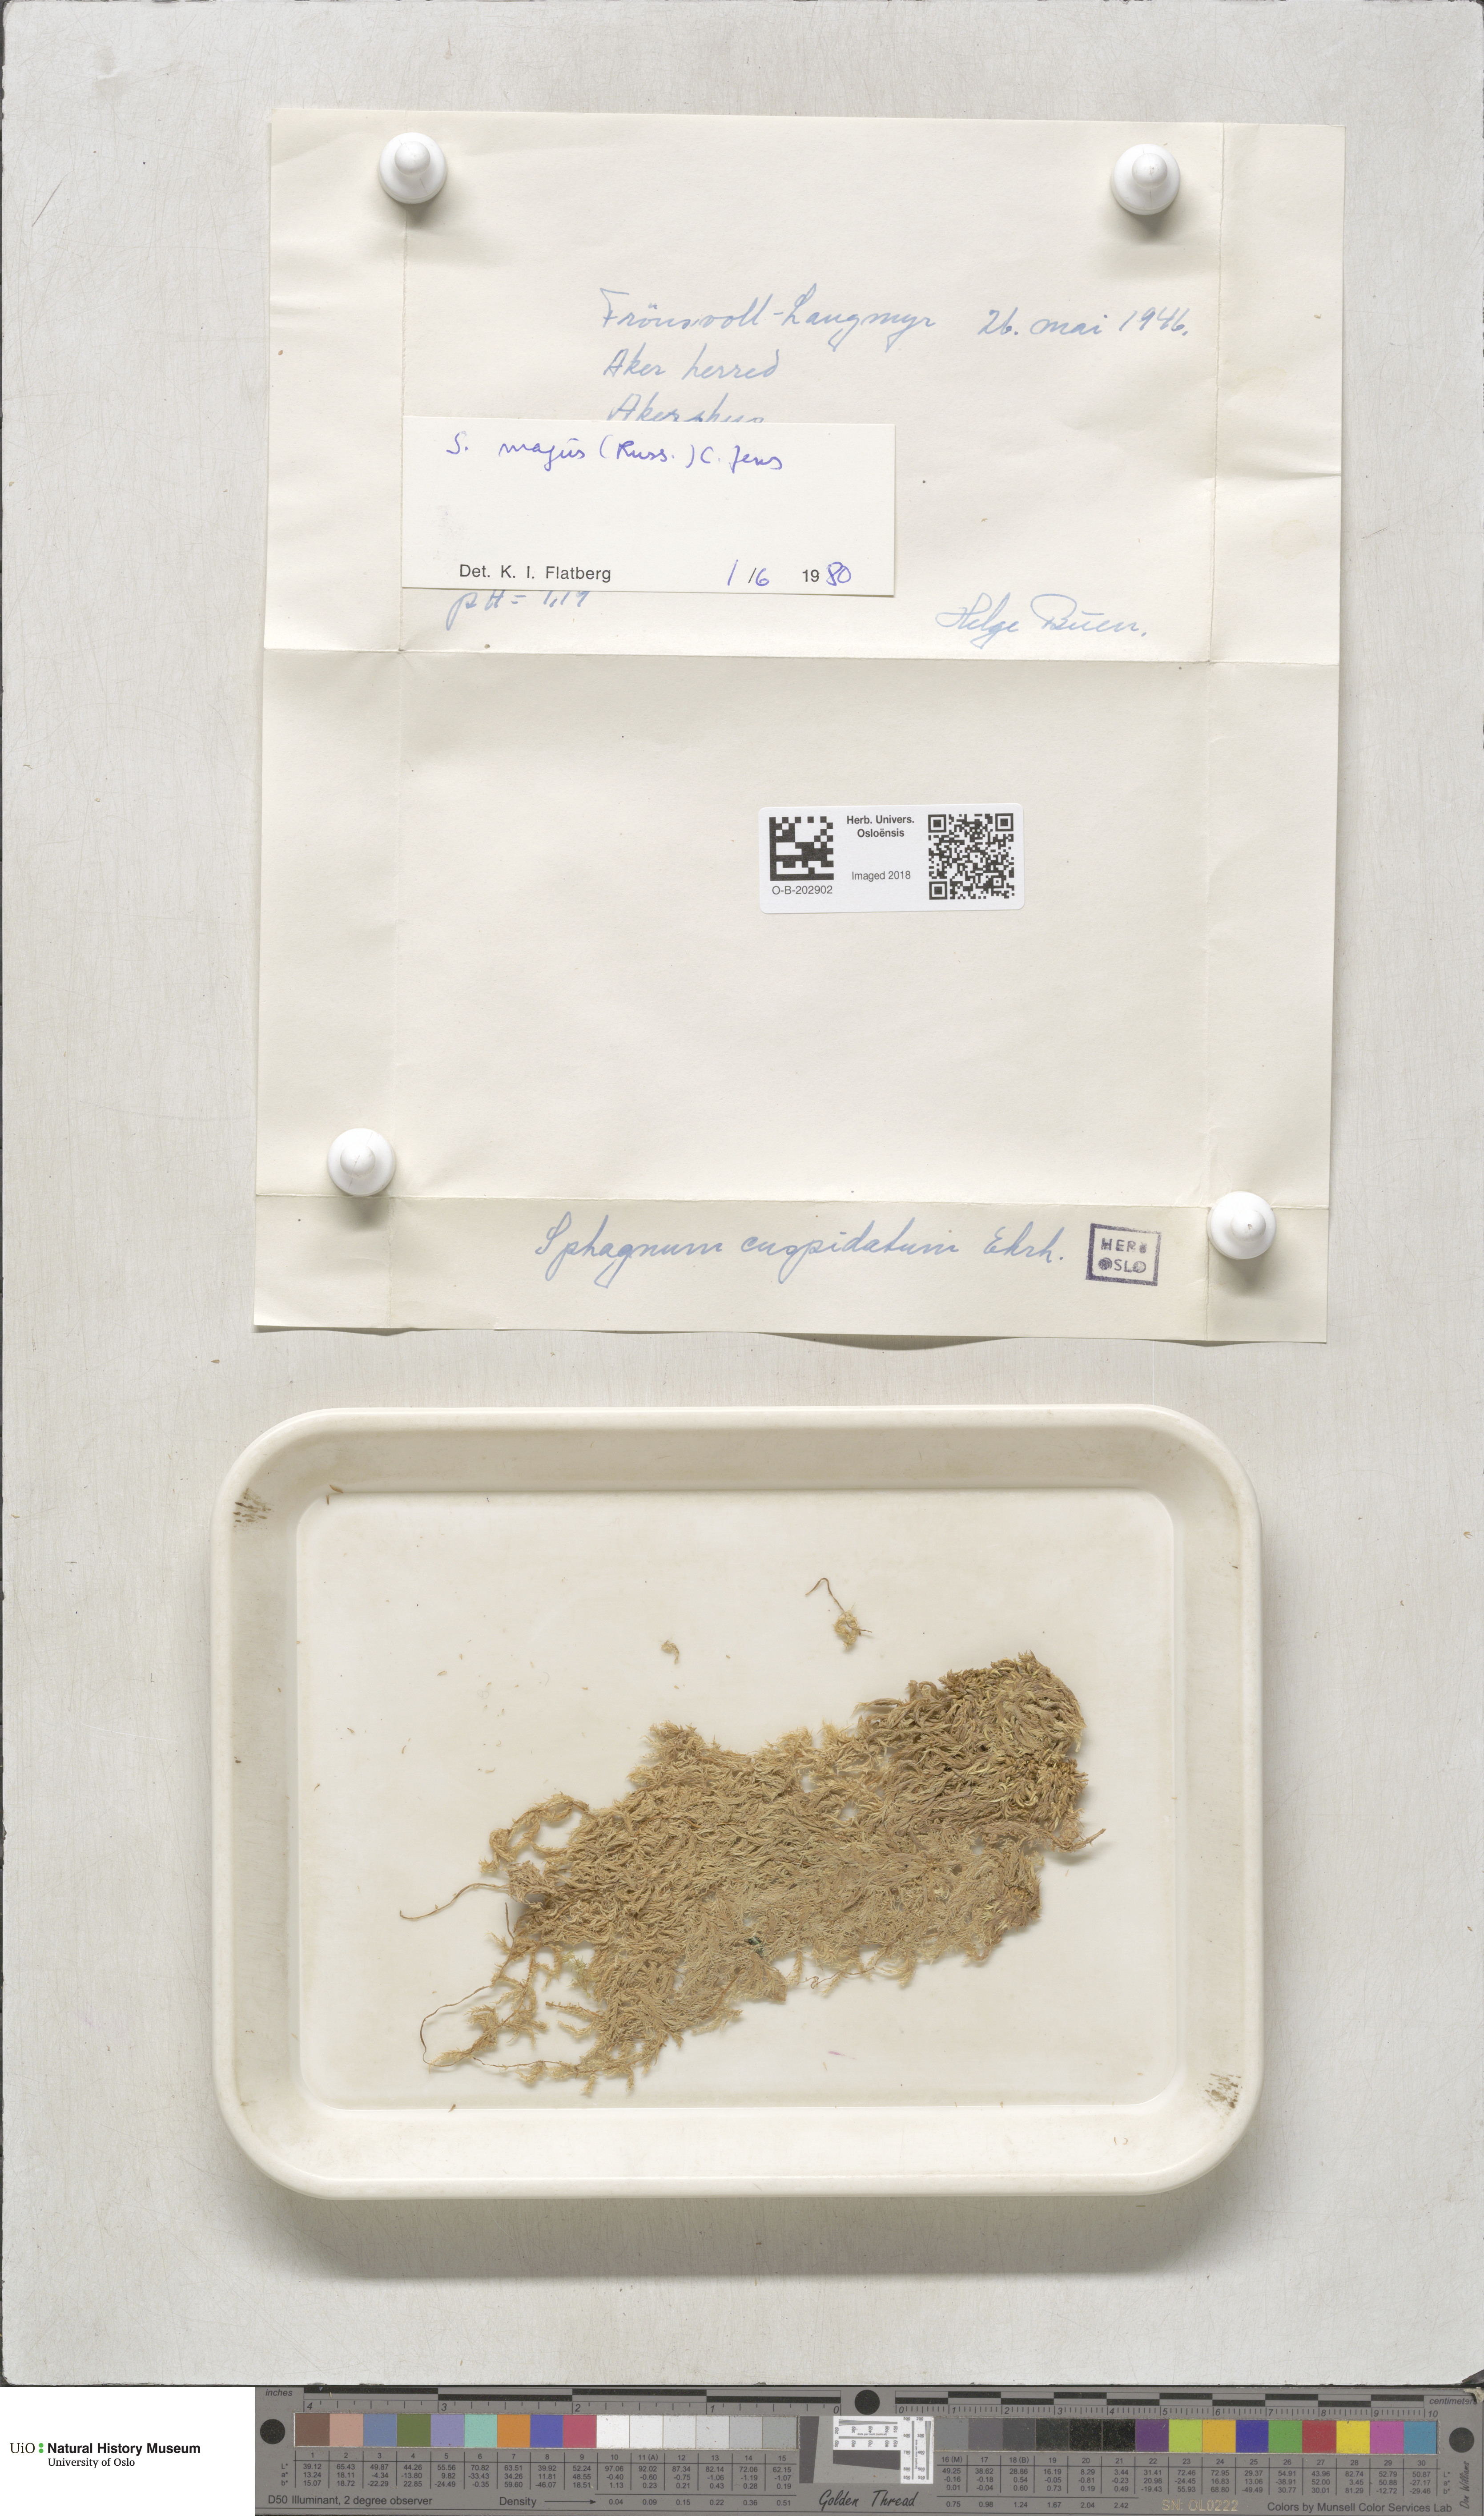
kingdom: Plantae
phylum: Bryophyta
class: Sphagnopsida
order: Sphagnales
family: Sphagnaceae
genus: Sphagnum
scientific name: Sphagnum majus
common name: Olive bog-moss
